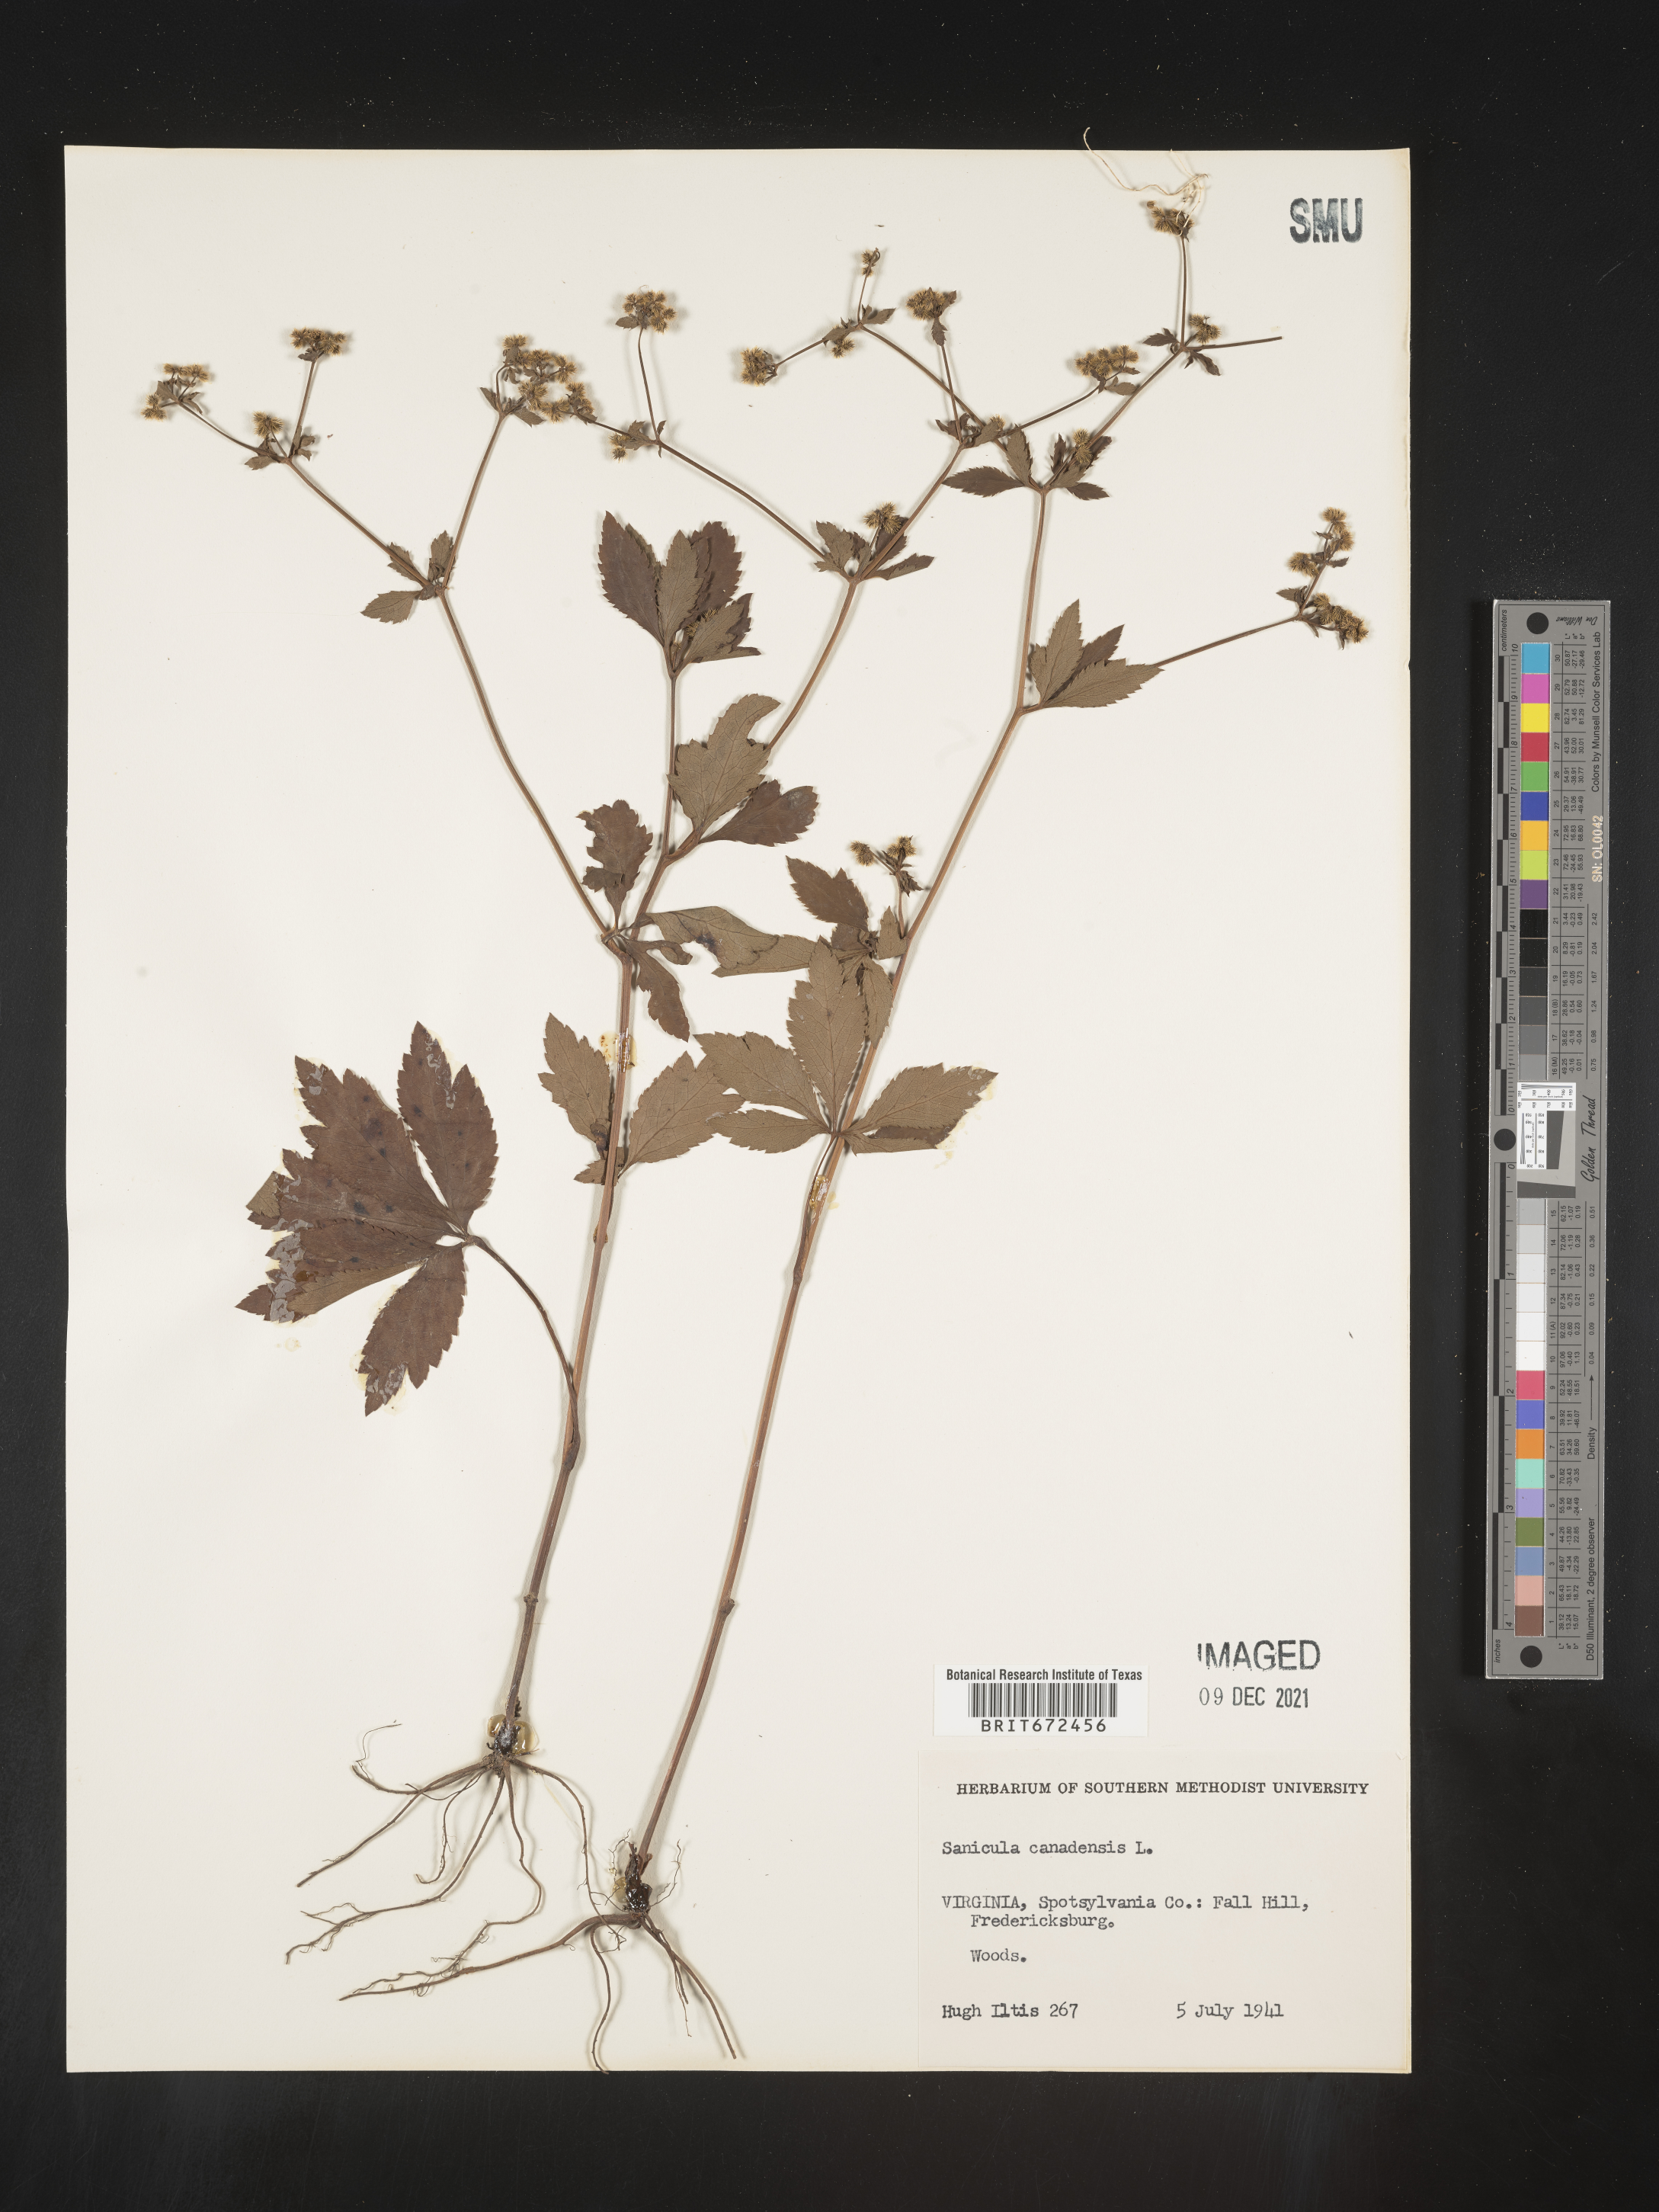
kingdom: Plantae
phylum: Tracheophyta
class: Magnoliopsida
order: Apiales
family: Apiaceae
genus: Sanicula
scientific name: Sanicula canadensis
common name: Canada sanicle
